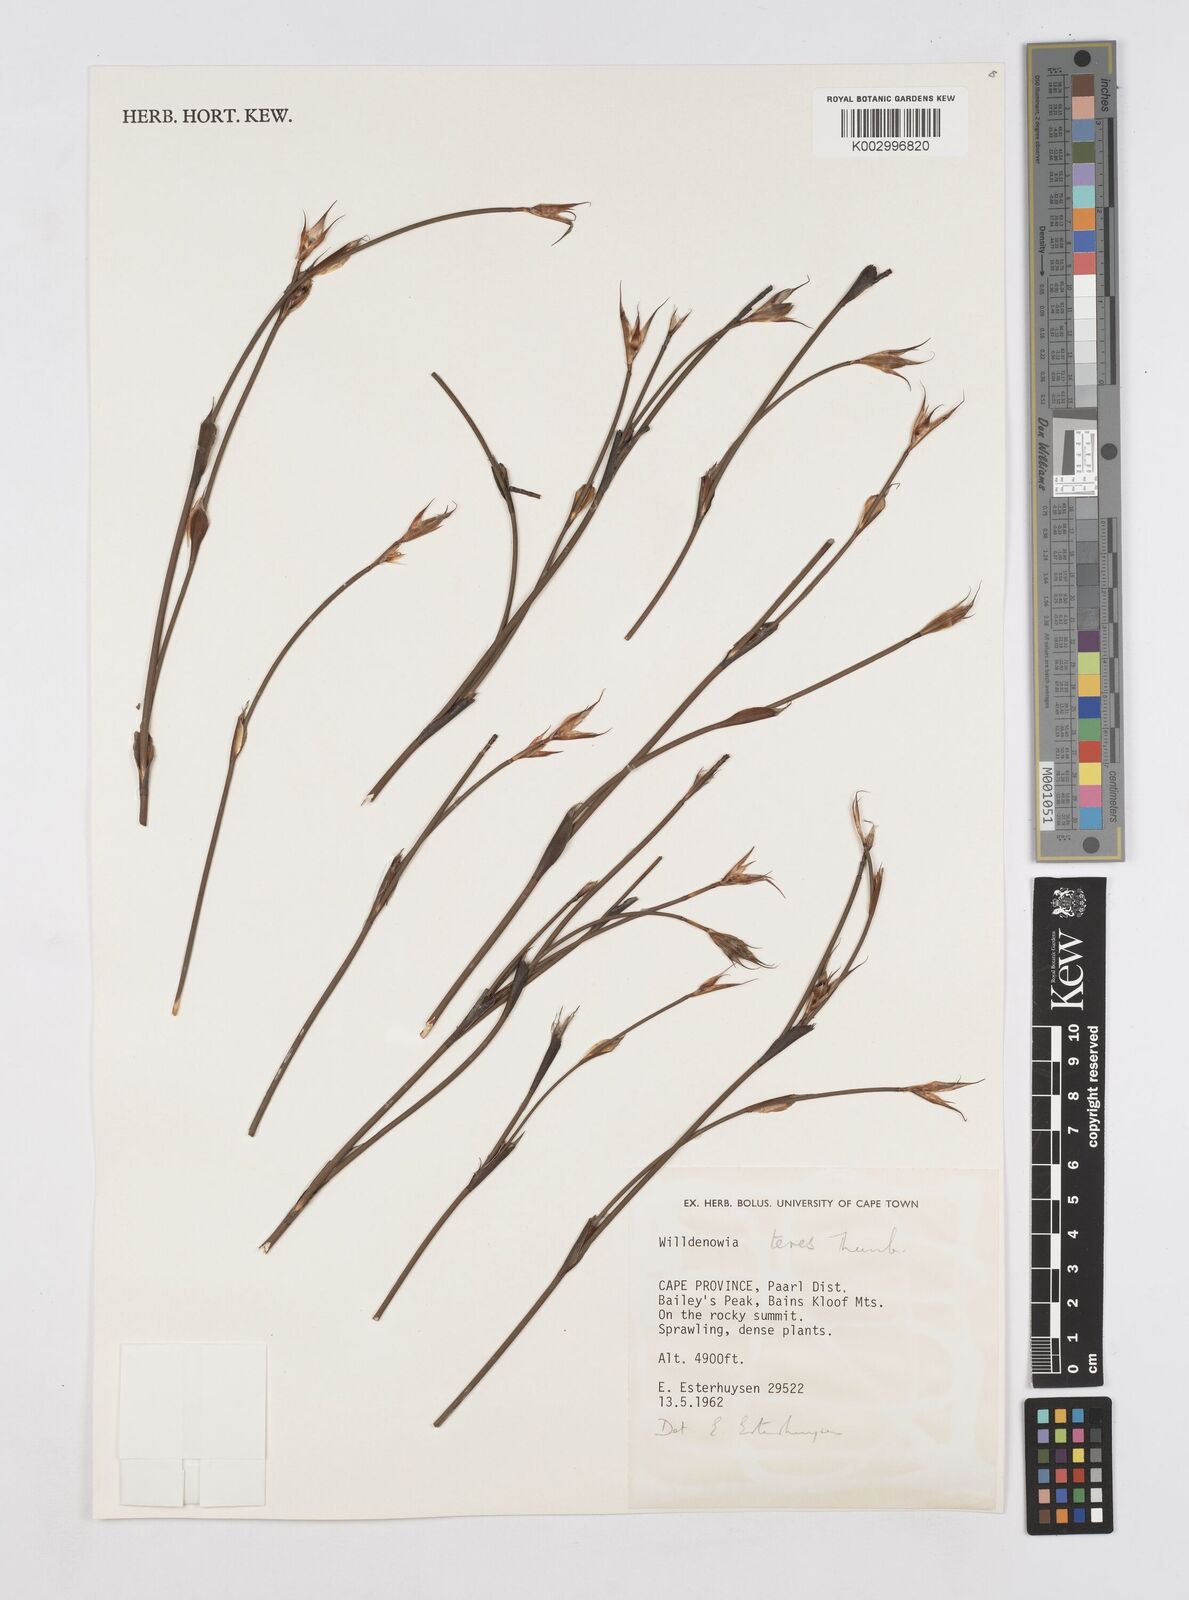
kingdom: Plantae
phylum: Tracheophyta
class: Liliopsida
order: Poales
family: Restionaceae
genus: Willdenowia
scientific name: Willdenowia teres
